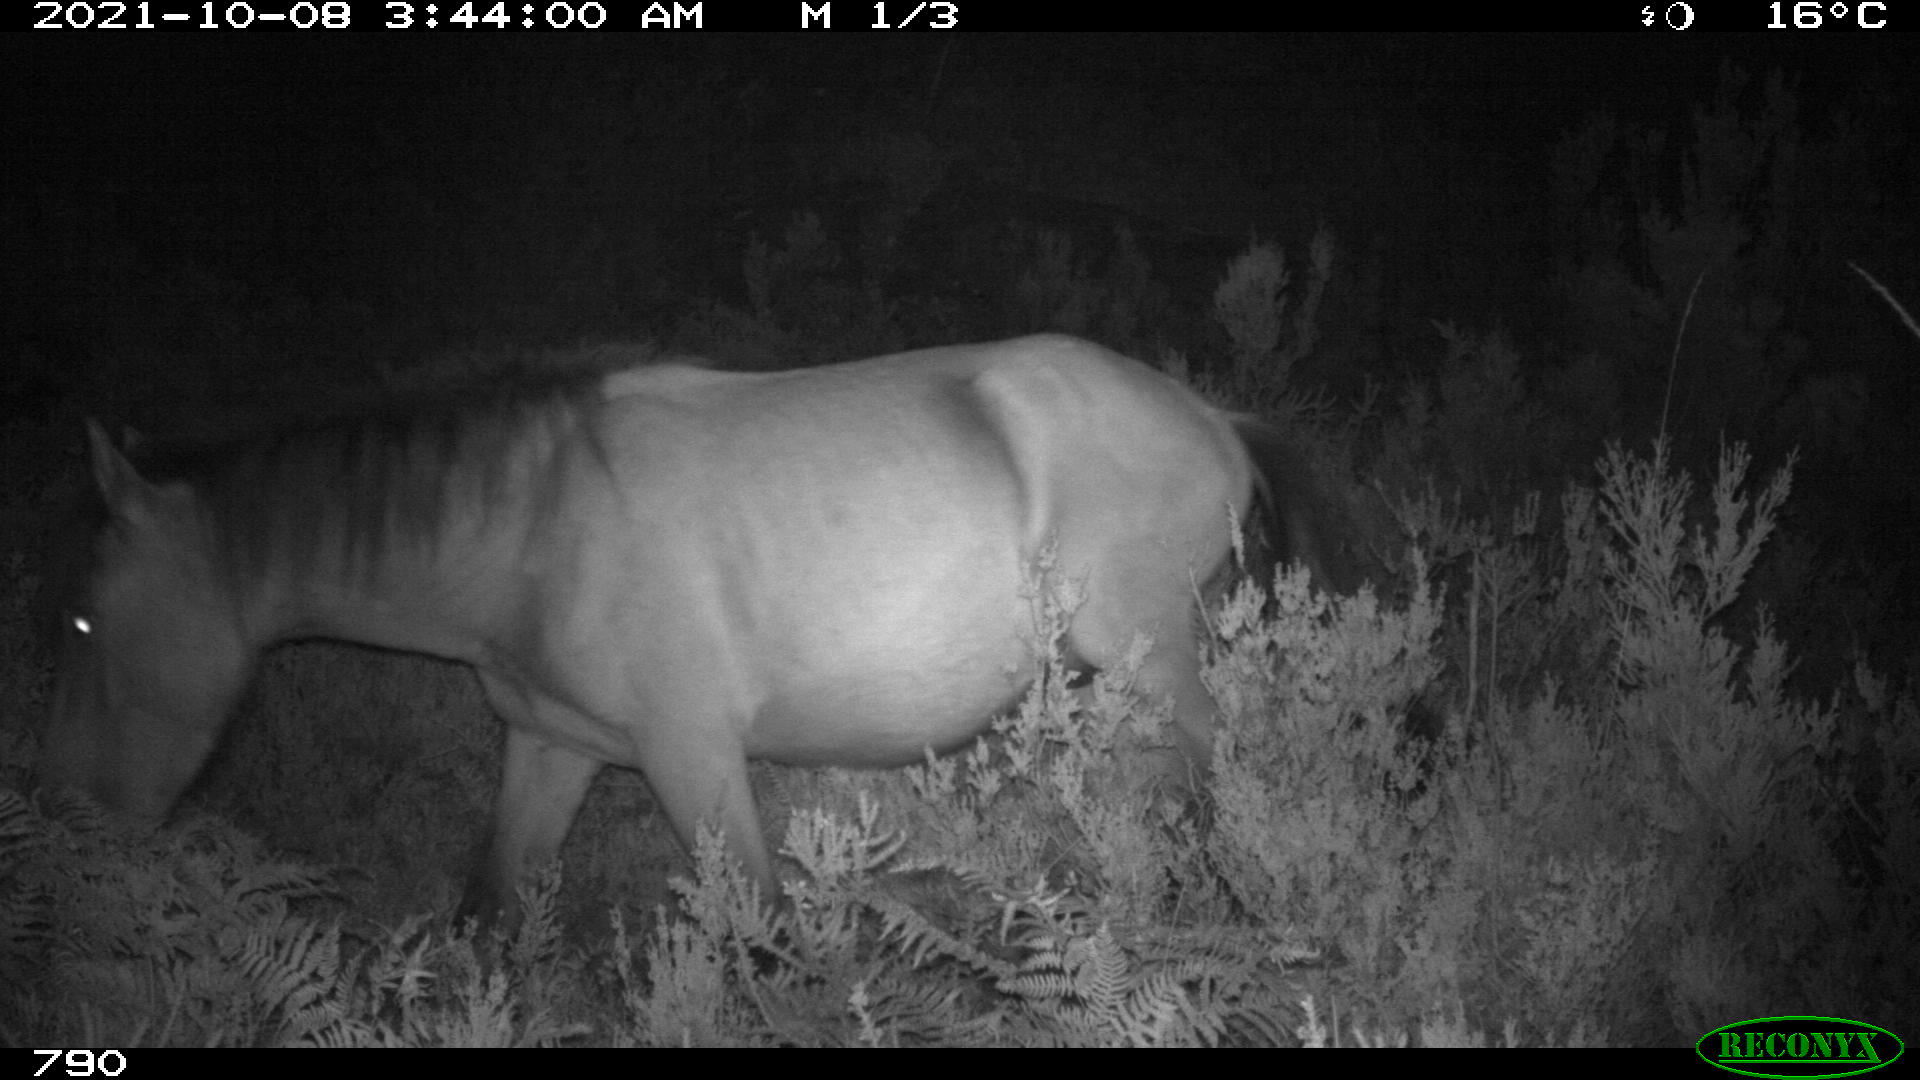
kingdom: Animalia
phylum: Chordata
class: Mammalia
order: Perissodactyla
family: Equidae
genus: Equus
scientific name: Equus caballus
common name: Horse
